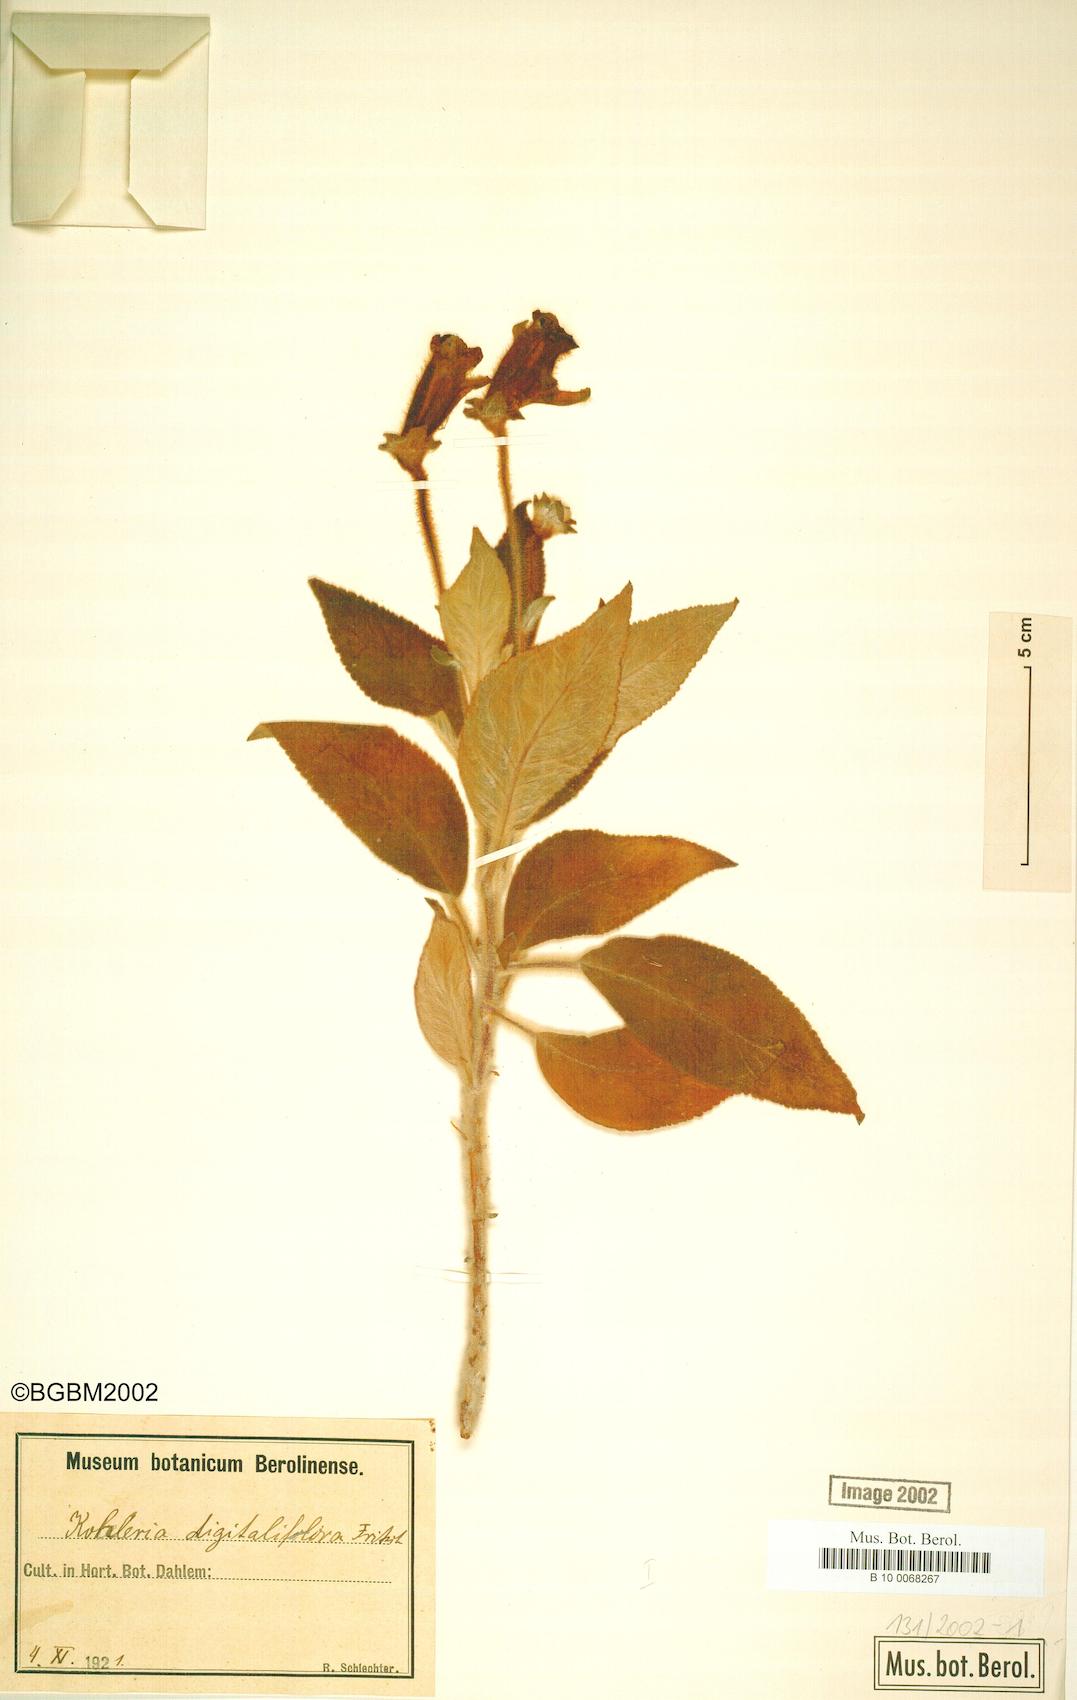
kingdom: Plantae
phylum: Tracheophyta
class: Magnoliopsida
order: Lamiales
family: Gesneriaceae
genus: Kohleria
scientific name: Kohleria warszewiczii
